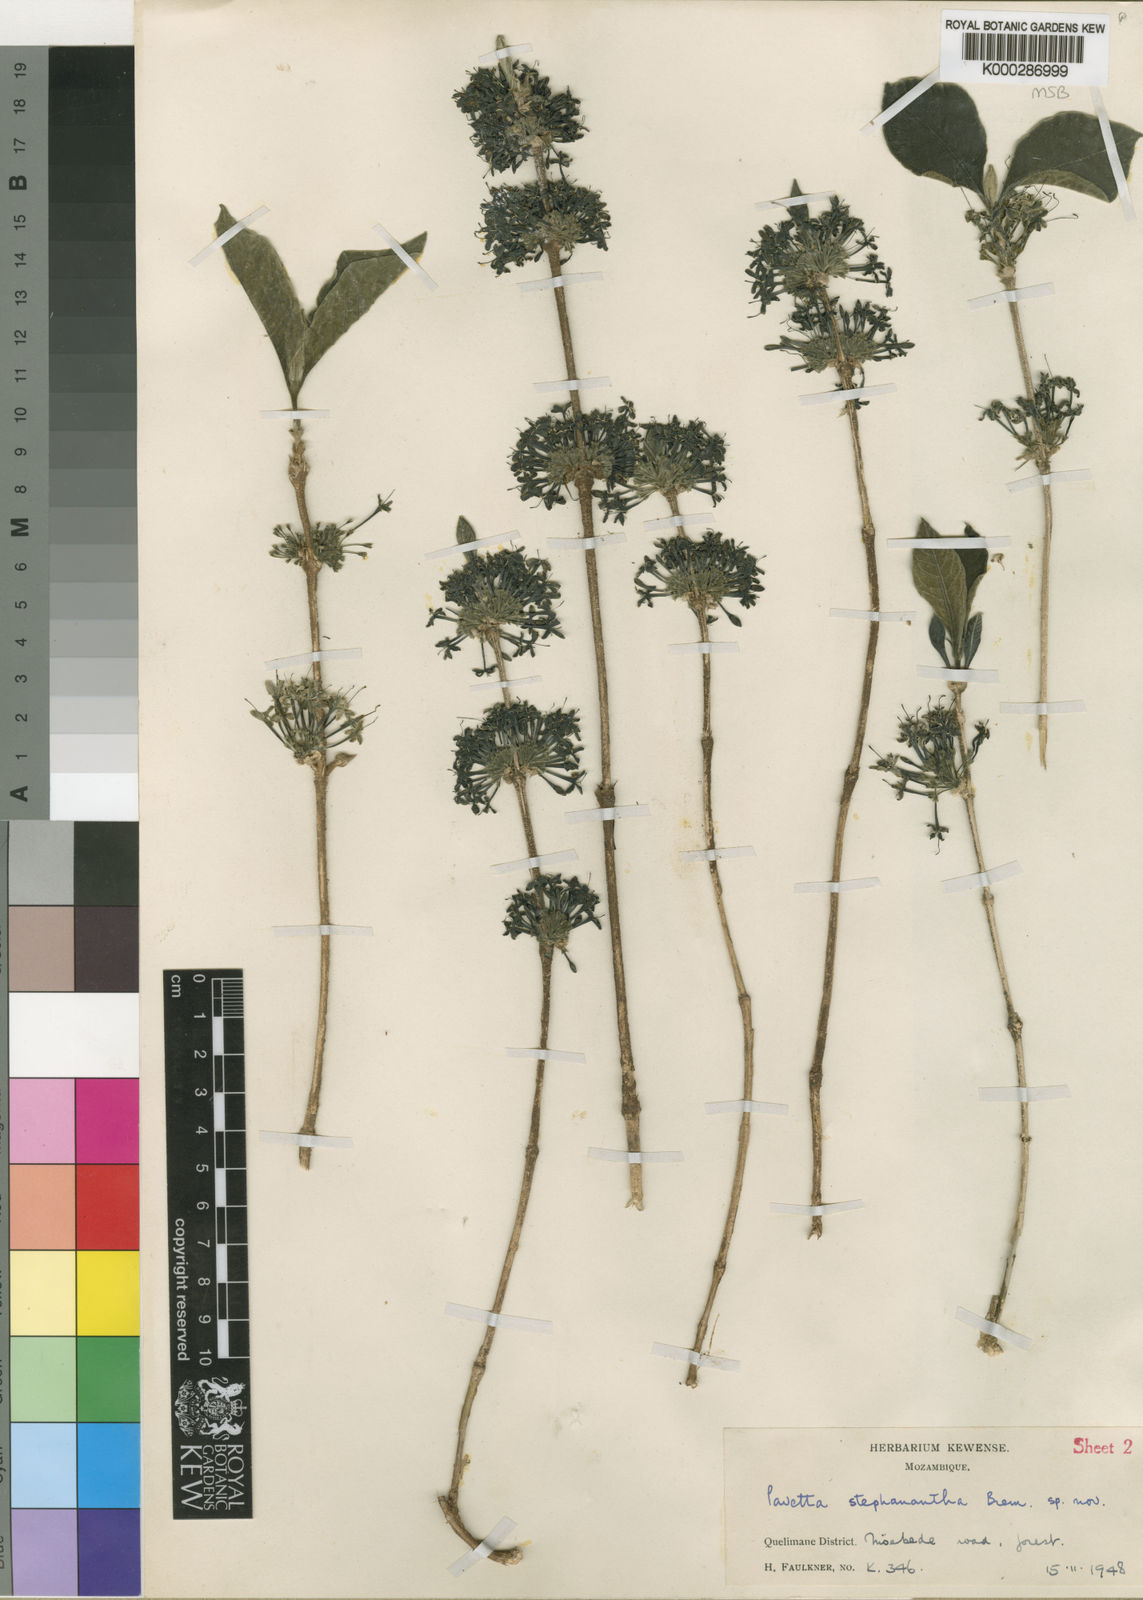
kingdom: Plantae
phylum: Tracheophyta
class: Magnoliopsida
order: Gentianales
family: Rubiaceae
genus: Pavetta
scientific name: Pavetta decumbens
